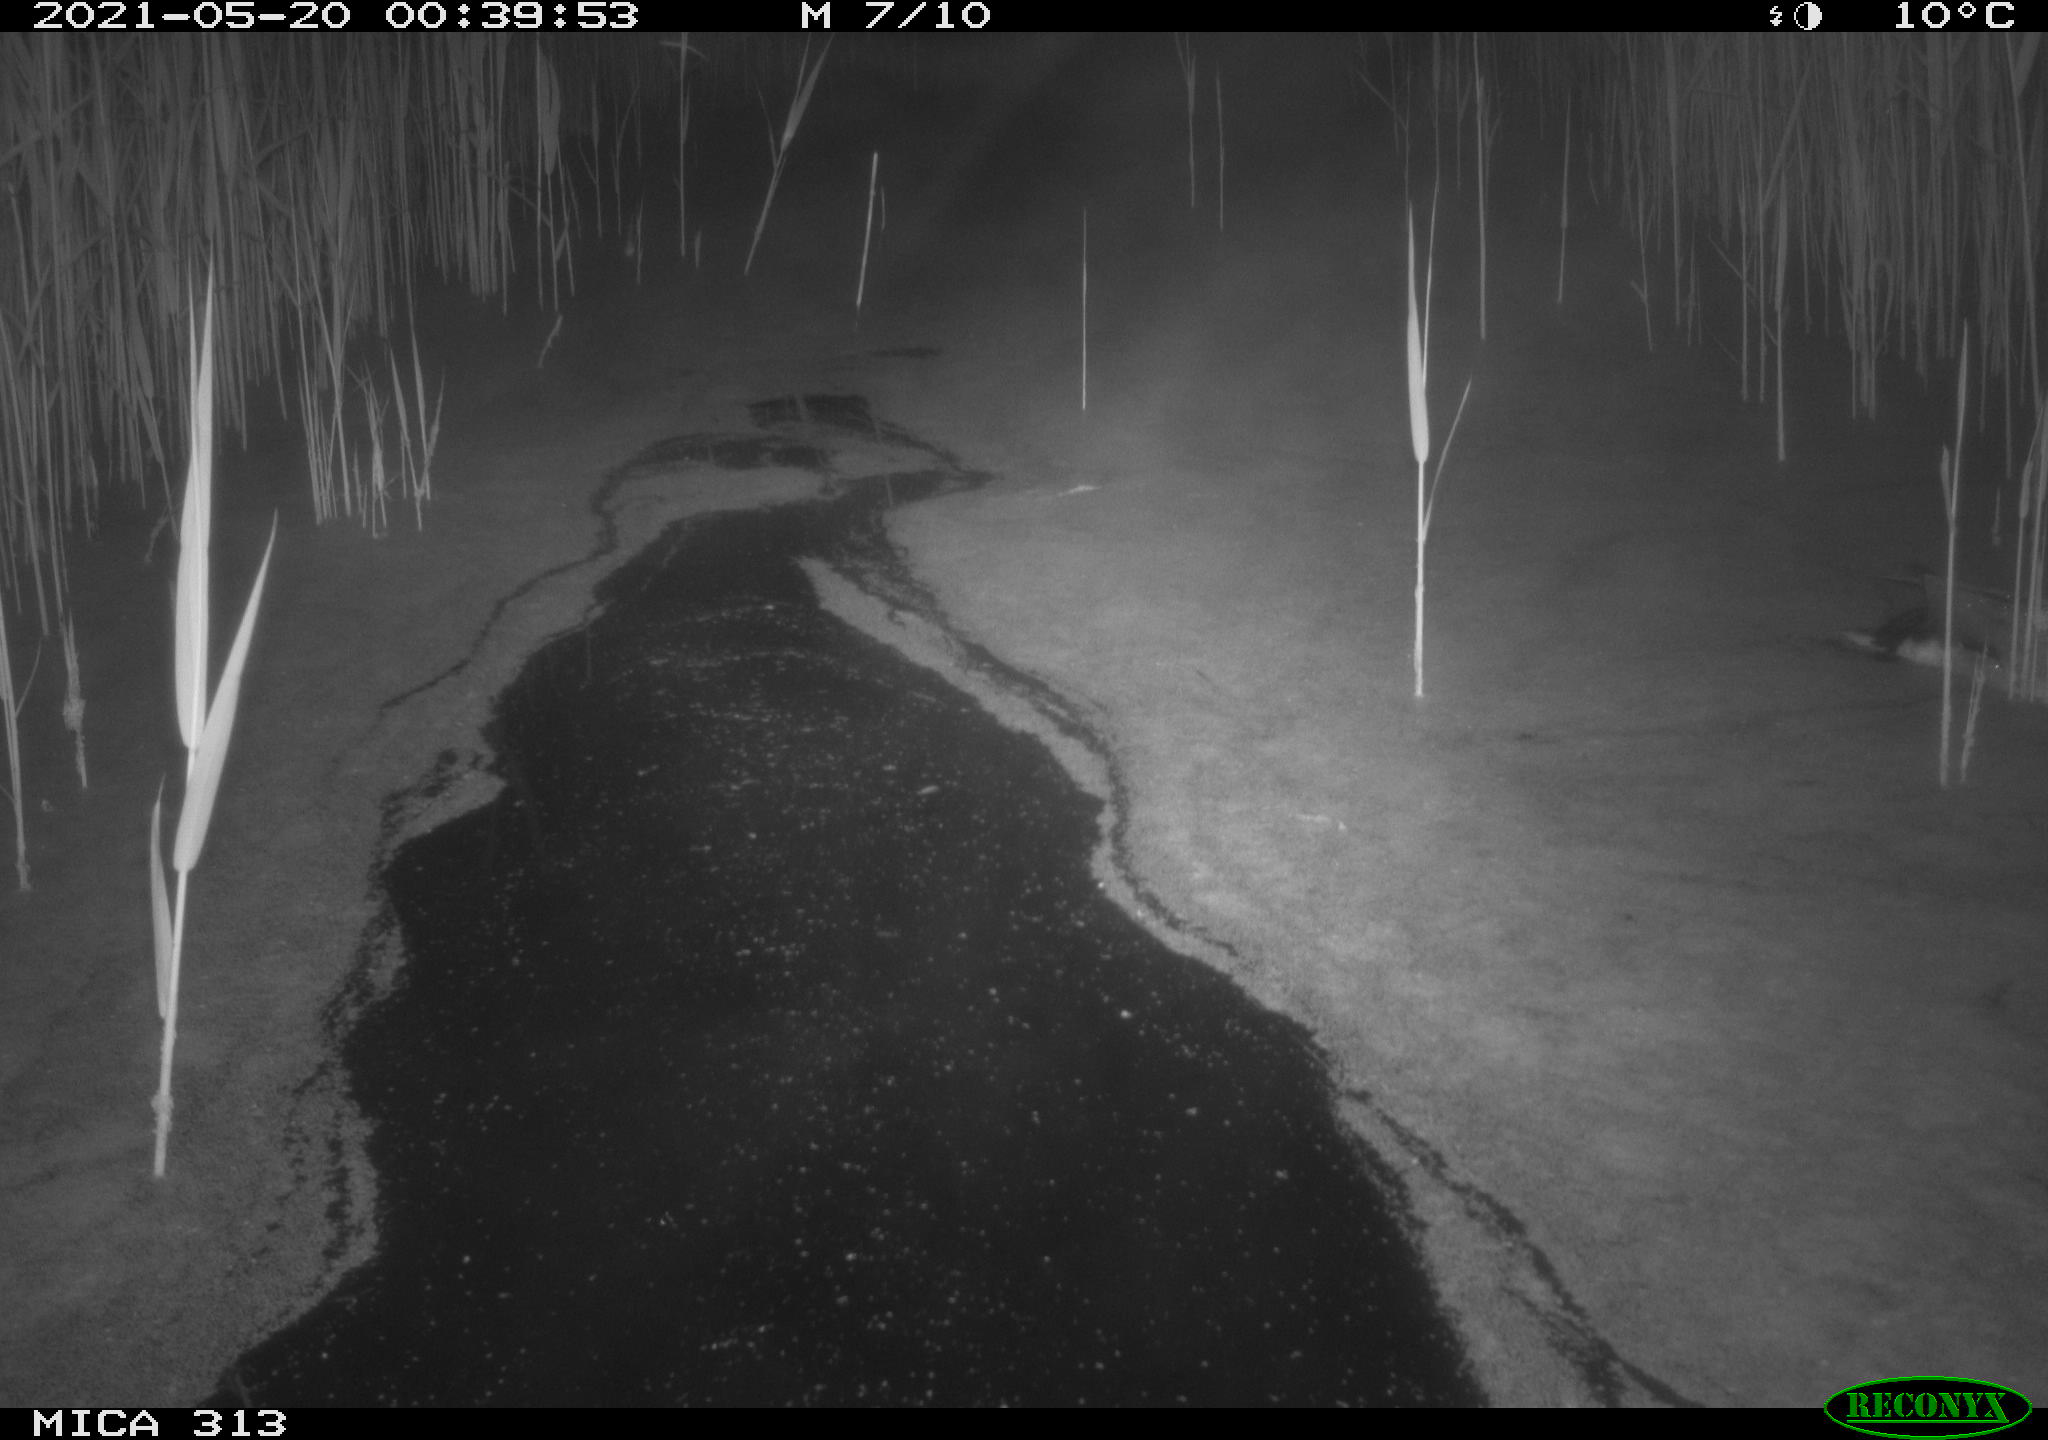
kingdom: Animalia
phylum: Chordata
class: Aves
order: Anseriformes
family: Anatidae
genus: Anas
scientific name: Anas platyrhynchos
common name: Mallard
